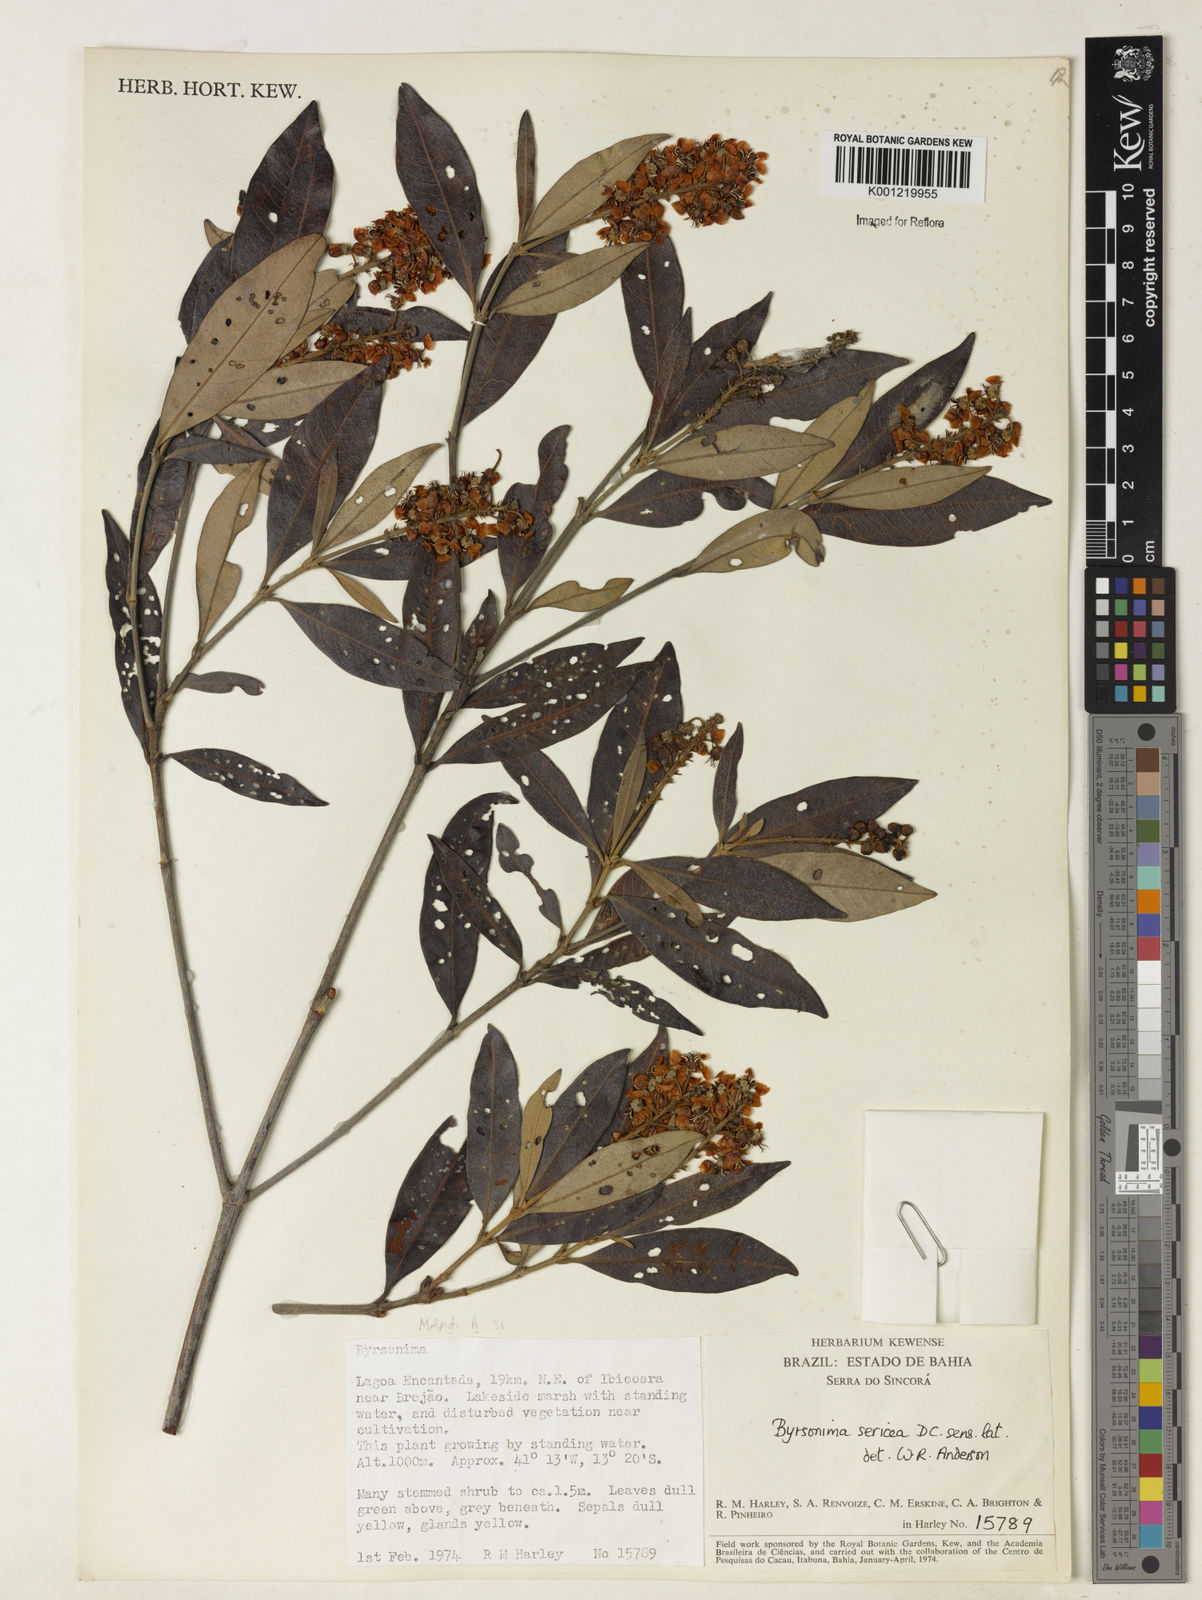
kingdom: Plantae
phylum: Tracheophyta
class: Magnoliopsida
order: Malpighiales
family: Malpighiaceae
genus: Byrsonima
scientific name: Byrsonima sericea
